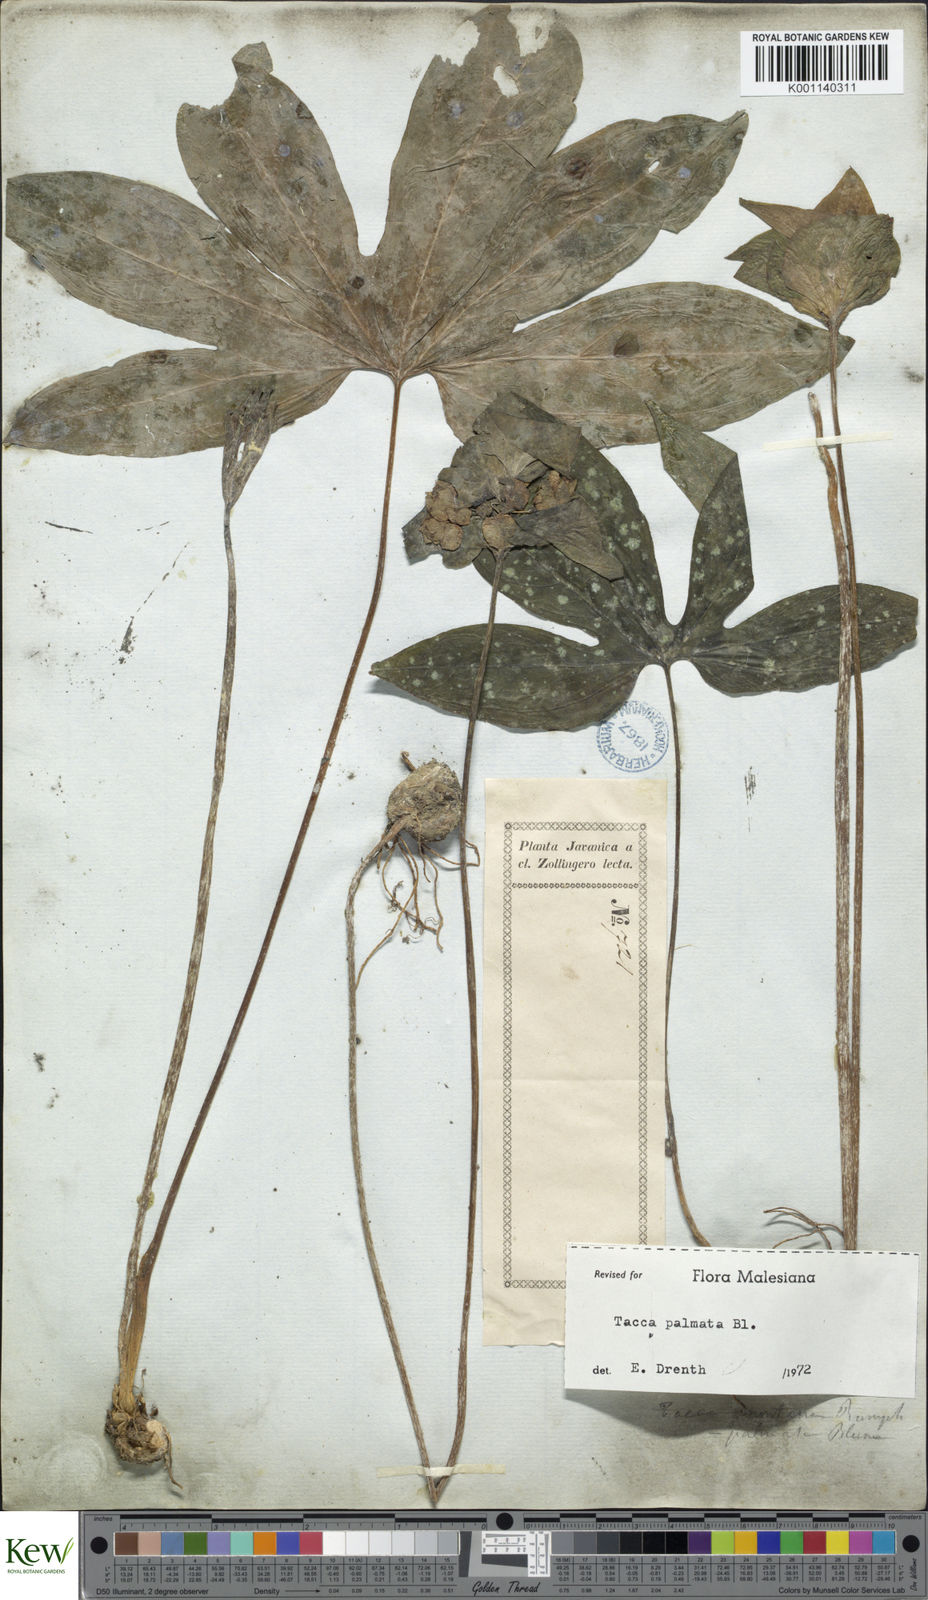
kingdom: Plantae
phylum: Tracheophyta
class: Liliopsida
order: Dioscoreales
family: Dioscoreaceae
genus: Tacca
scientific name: Tacca palmata
